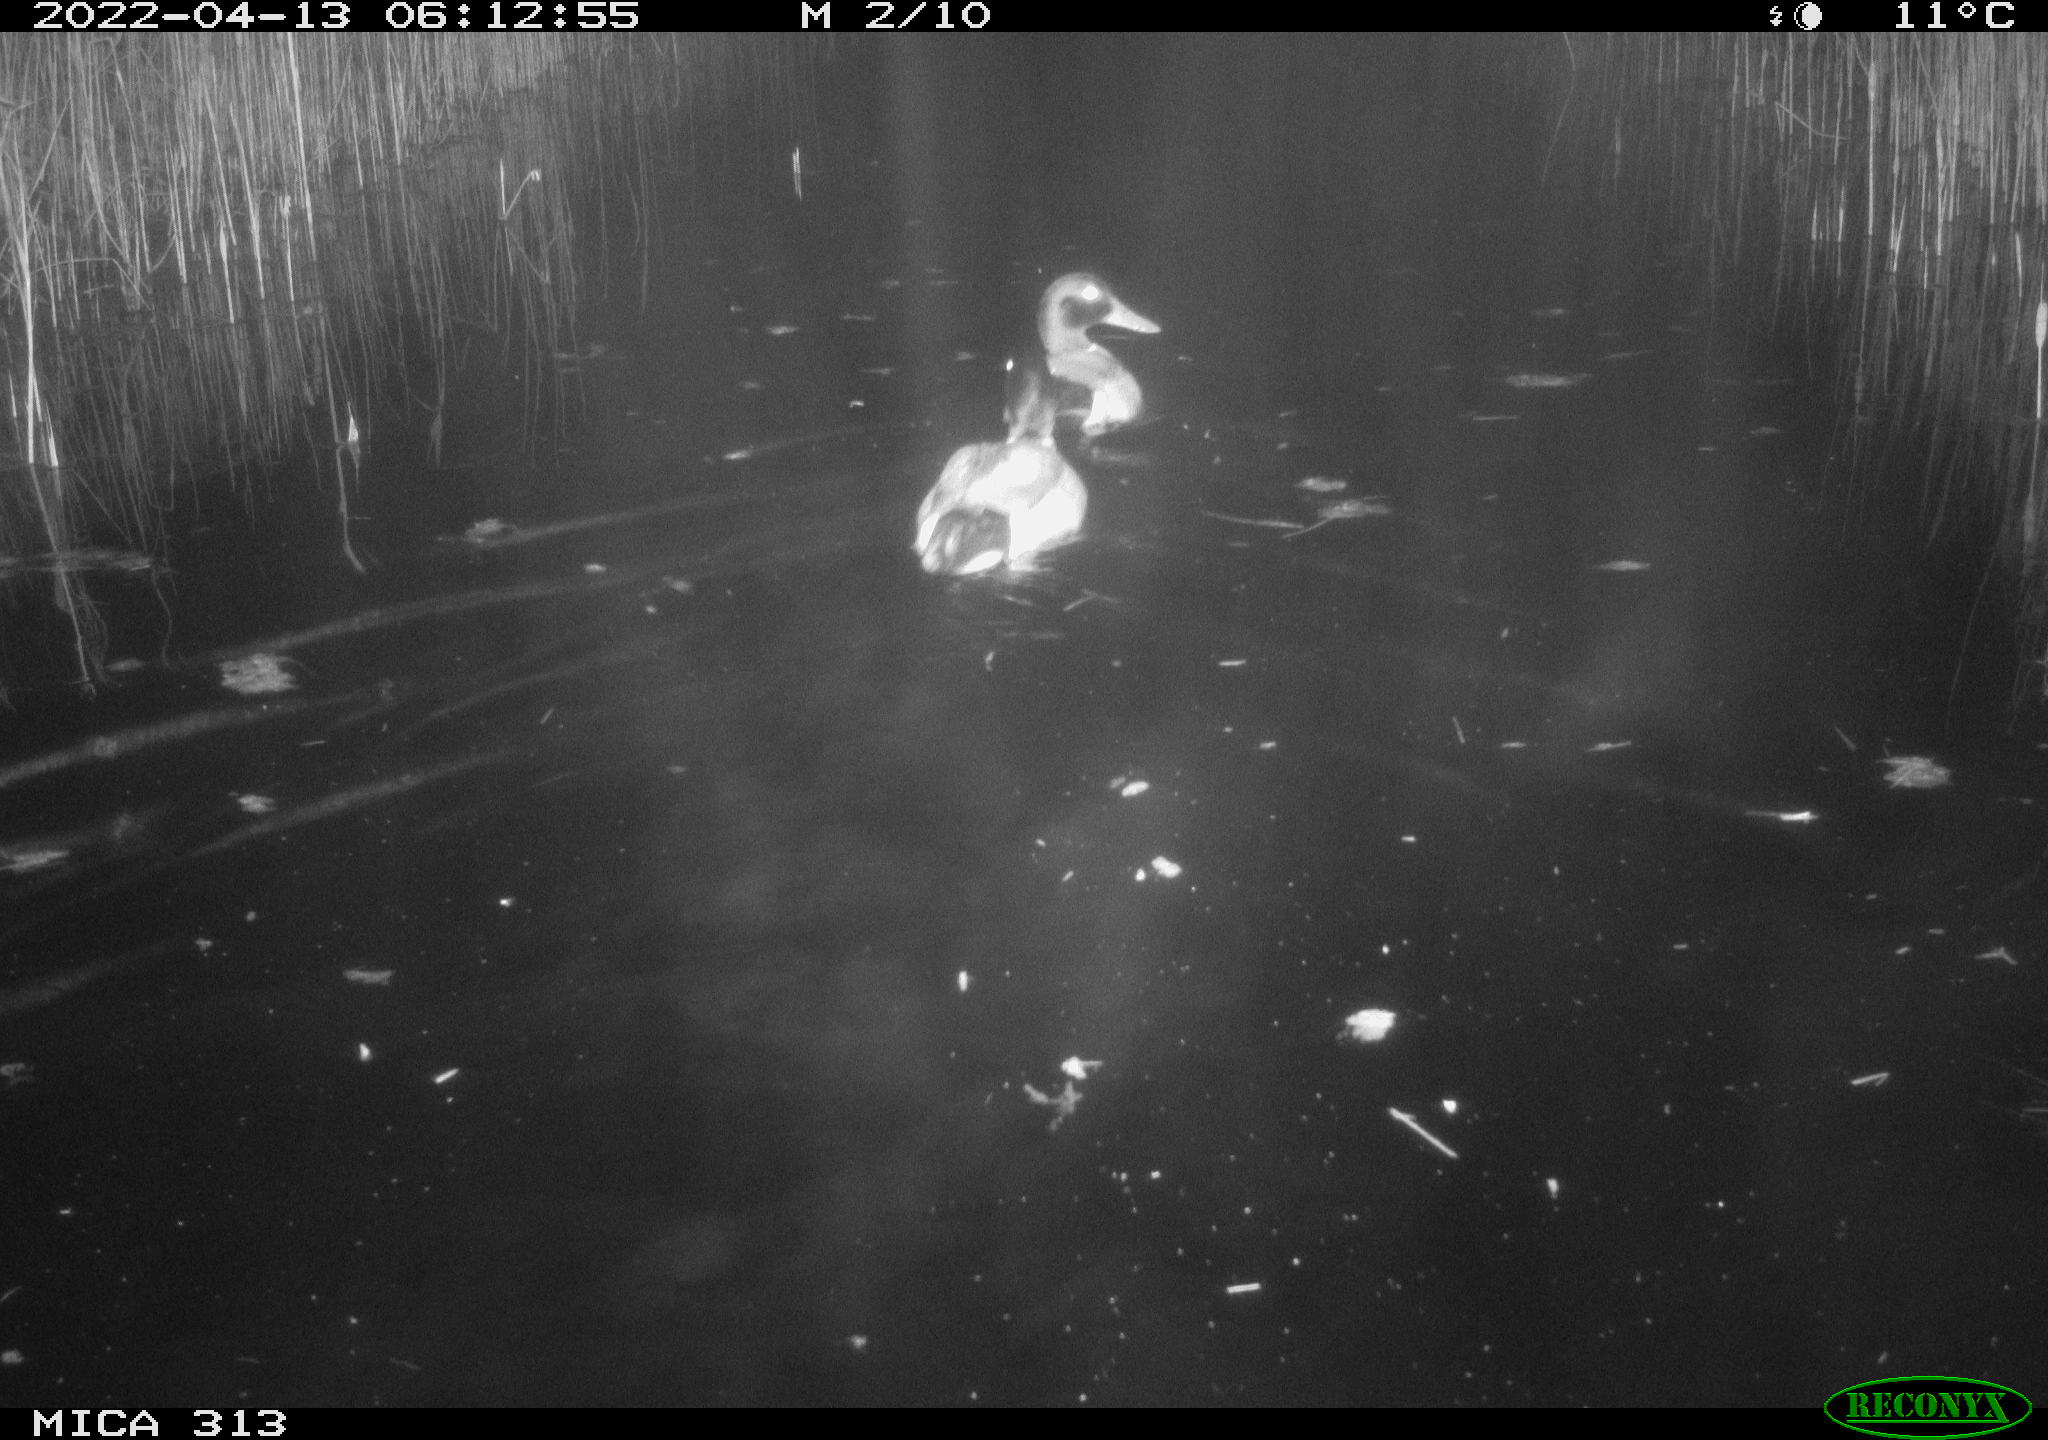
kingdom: Animalia
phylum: Chordata
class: Aves
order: Anseriformes
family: Anatidae
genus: Anas
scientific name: Anas platyrhynchos
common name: Mallard
